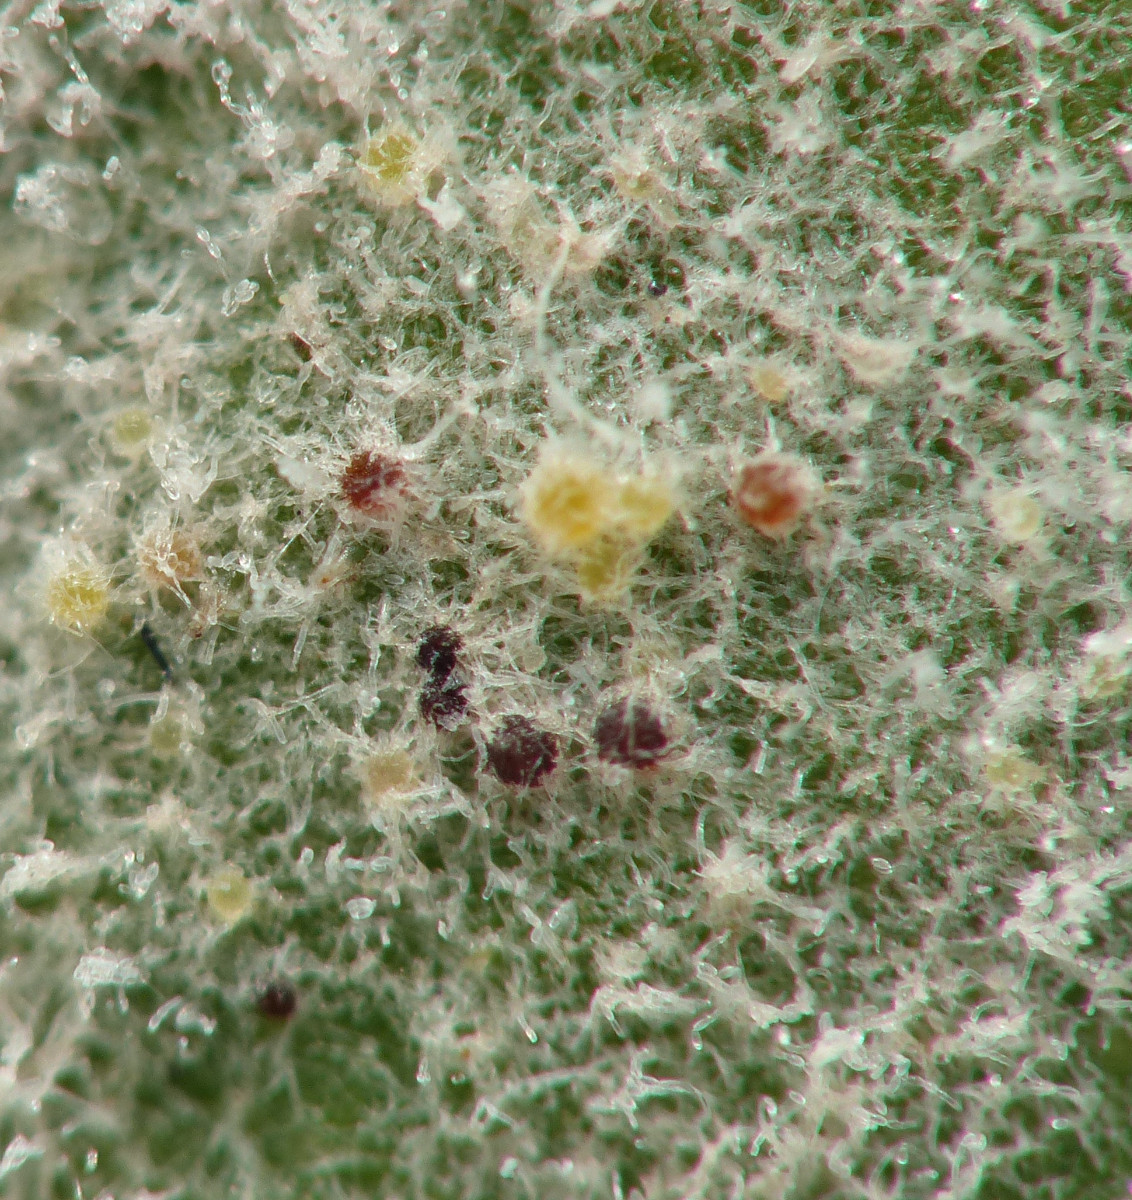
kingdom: Fungi
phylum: Ascomycota
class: Leotiomycetes
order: Helotiales
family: Erysiphaceae
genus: Golovinomyces
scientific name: Golovinomyces asterum
